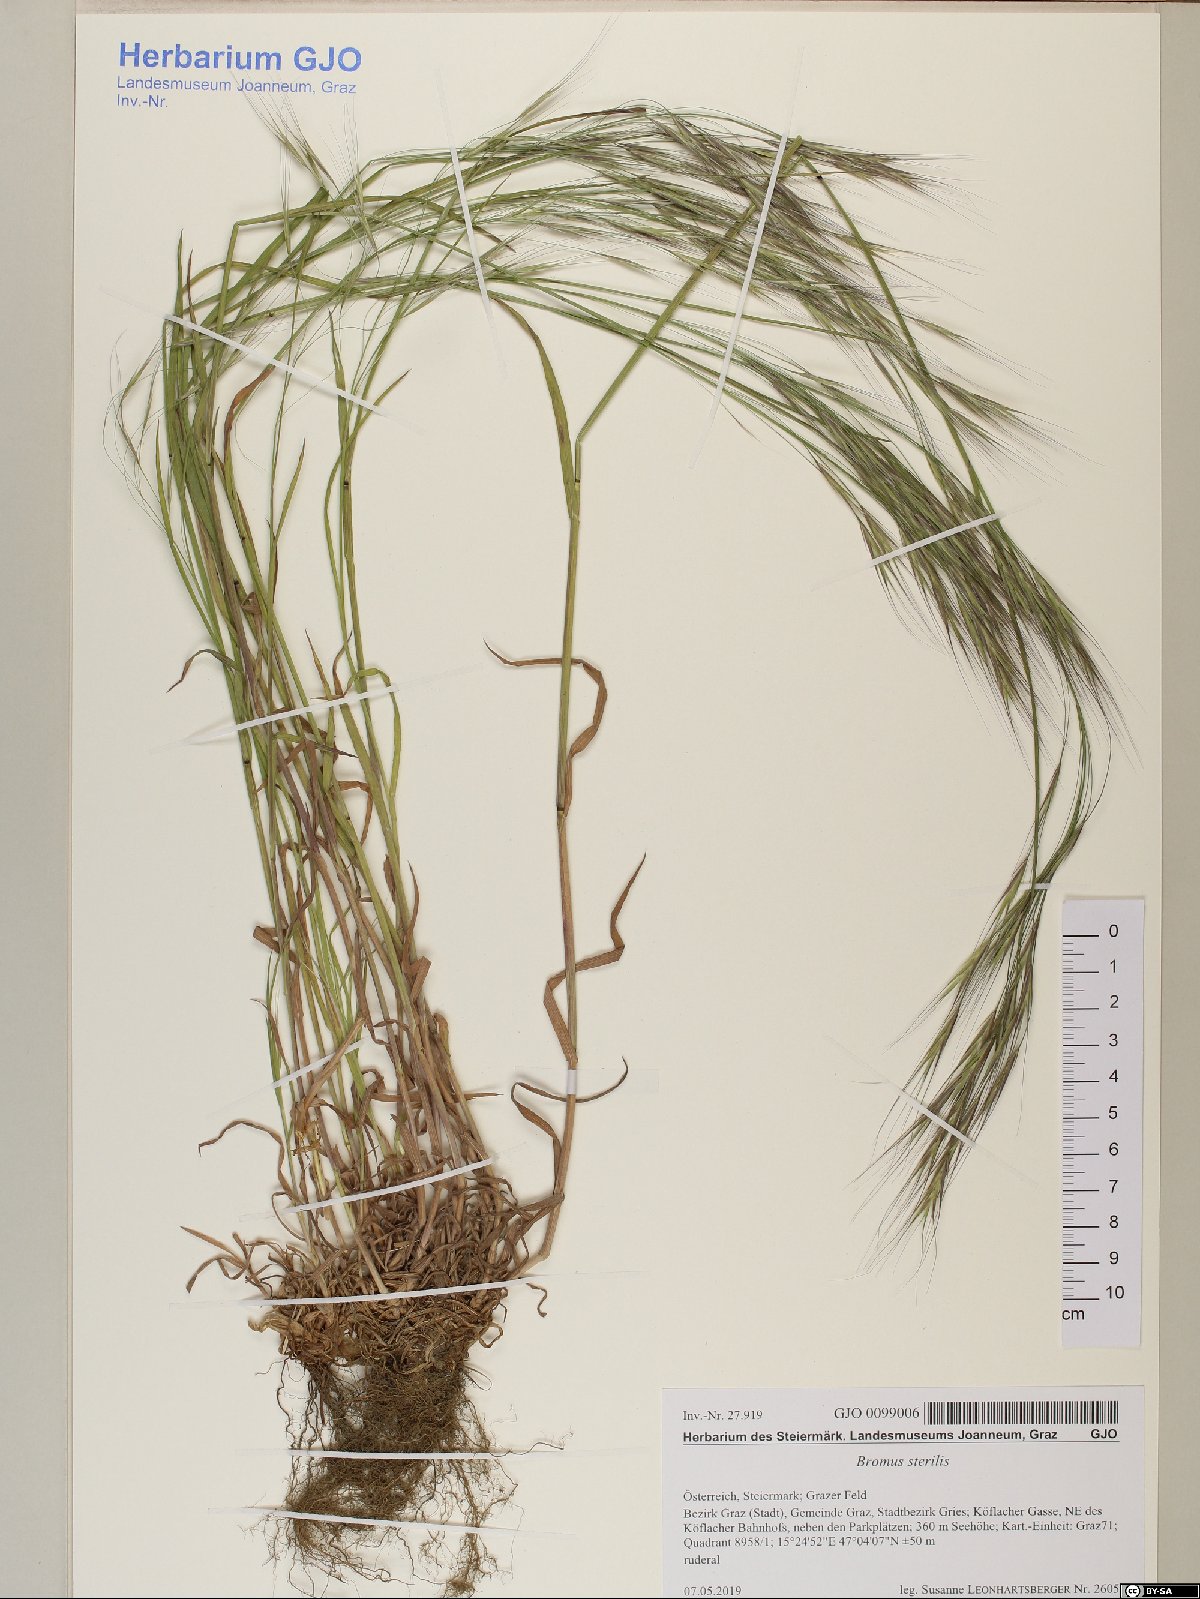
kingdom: Plantae
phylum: Tracheophyta
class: Liliopsida
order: Poales
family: Poaceae
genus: Bromus
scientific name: Bromus sterilis
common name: Poverty brome
